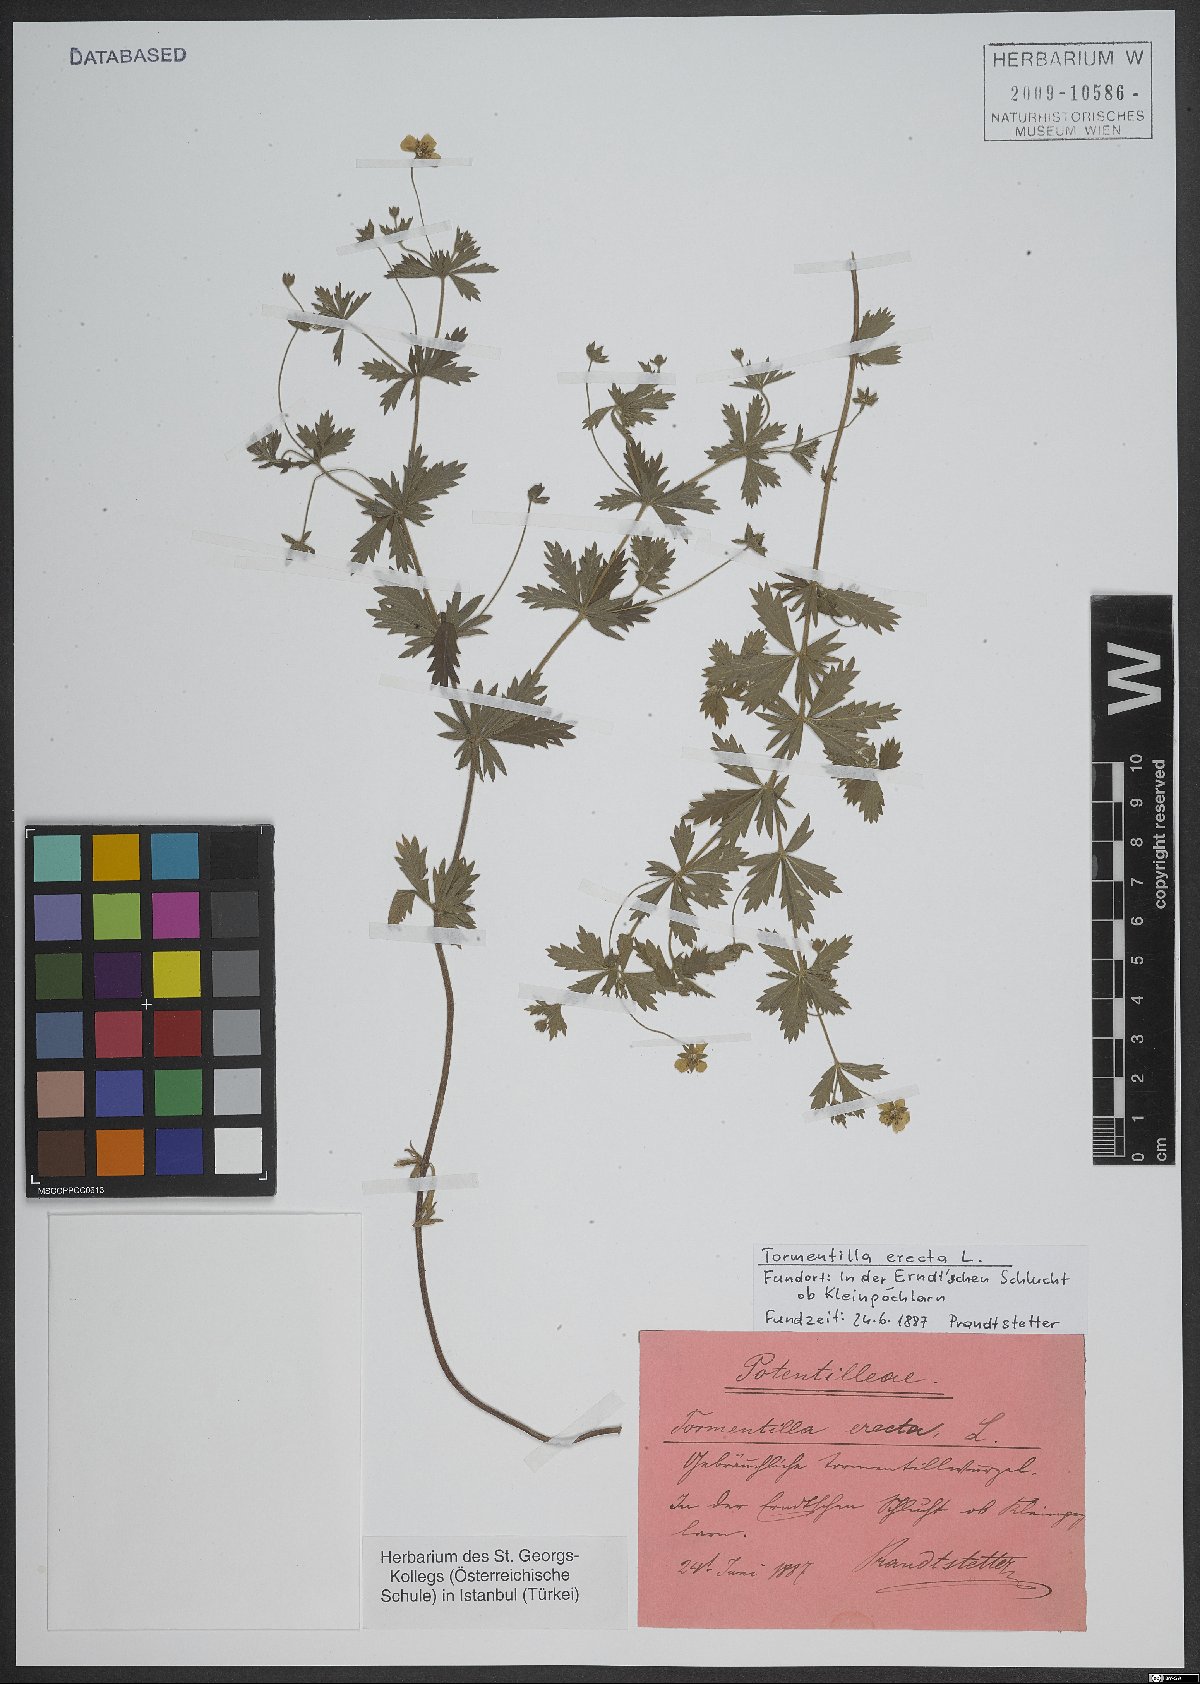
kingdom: Plantae
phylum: Tracheophyta
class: Magnoliopsida
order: Caryophyllales
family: Caryophyllaceae
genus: Arenaria
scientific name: Arenaria
